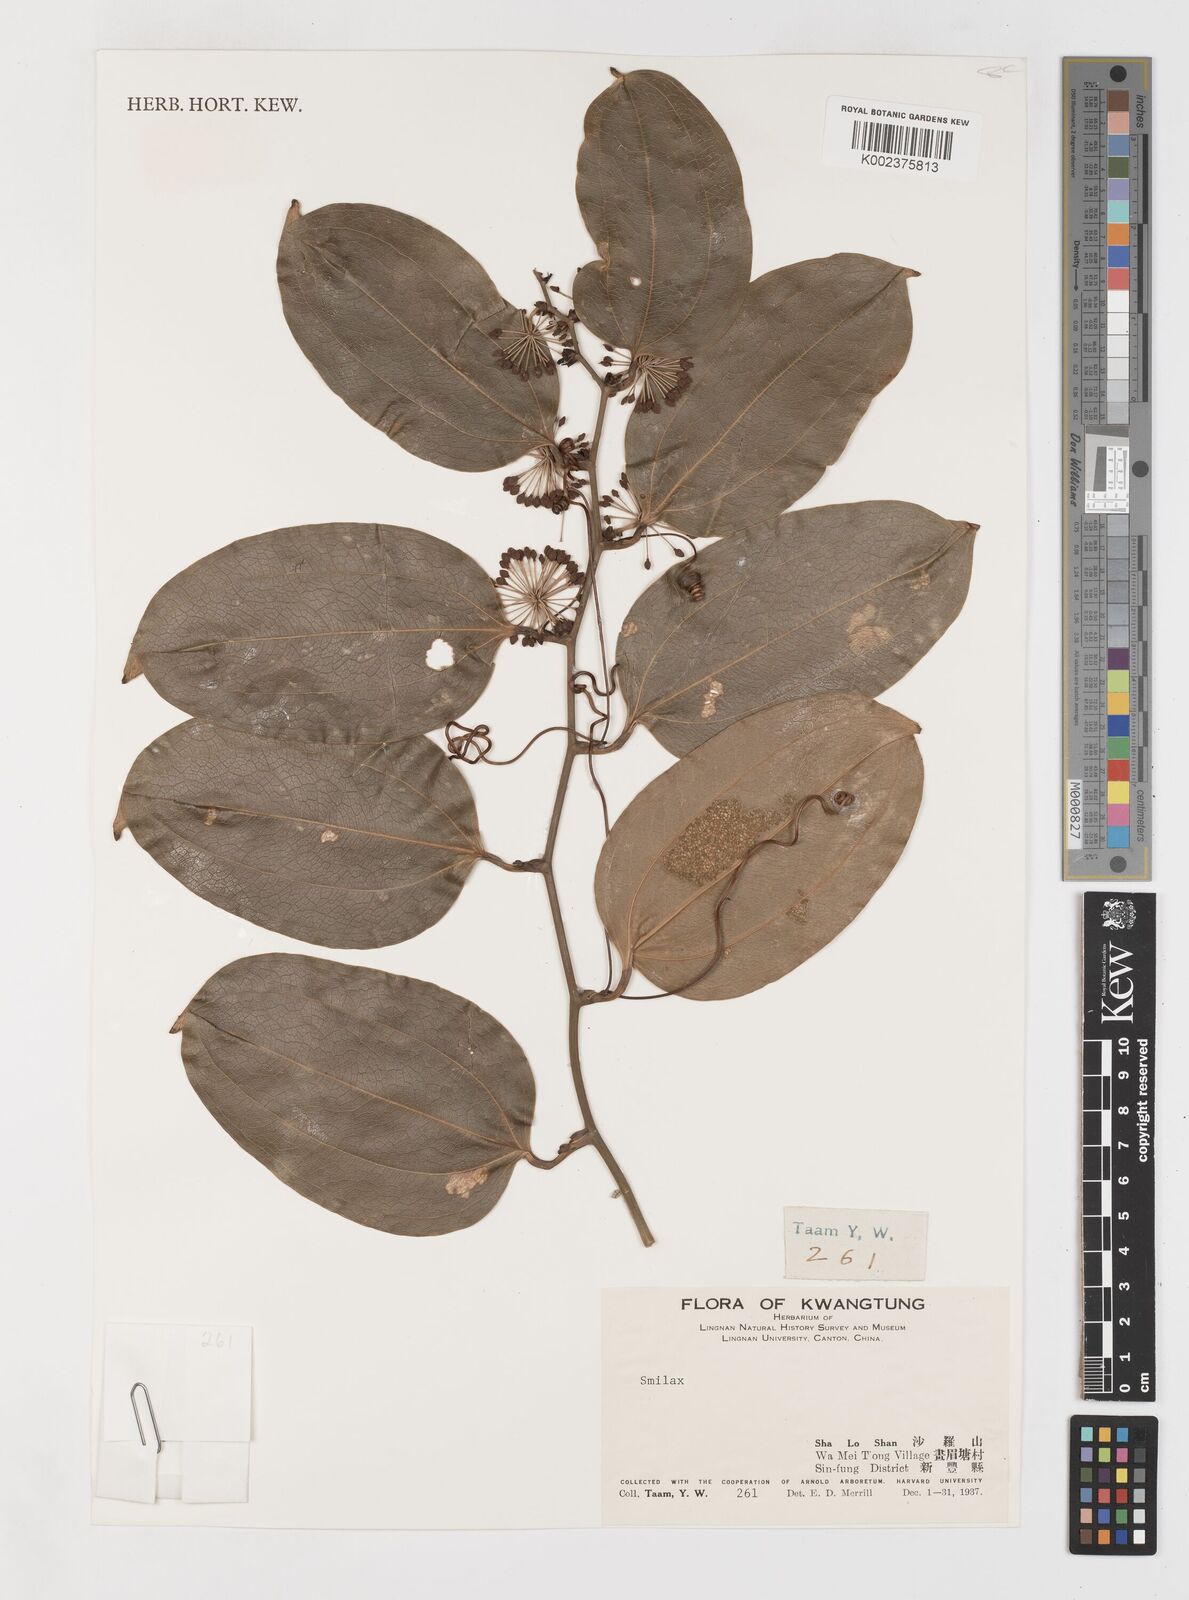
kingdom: Plantae
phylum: Tracheophyta
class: Liliopsida
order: Liliales
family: Smilacaceae
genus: Smilax
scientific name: Smilax
